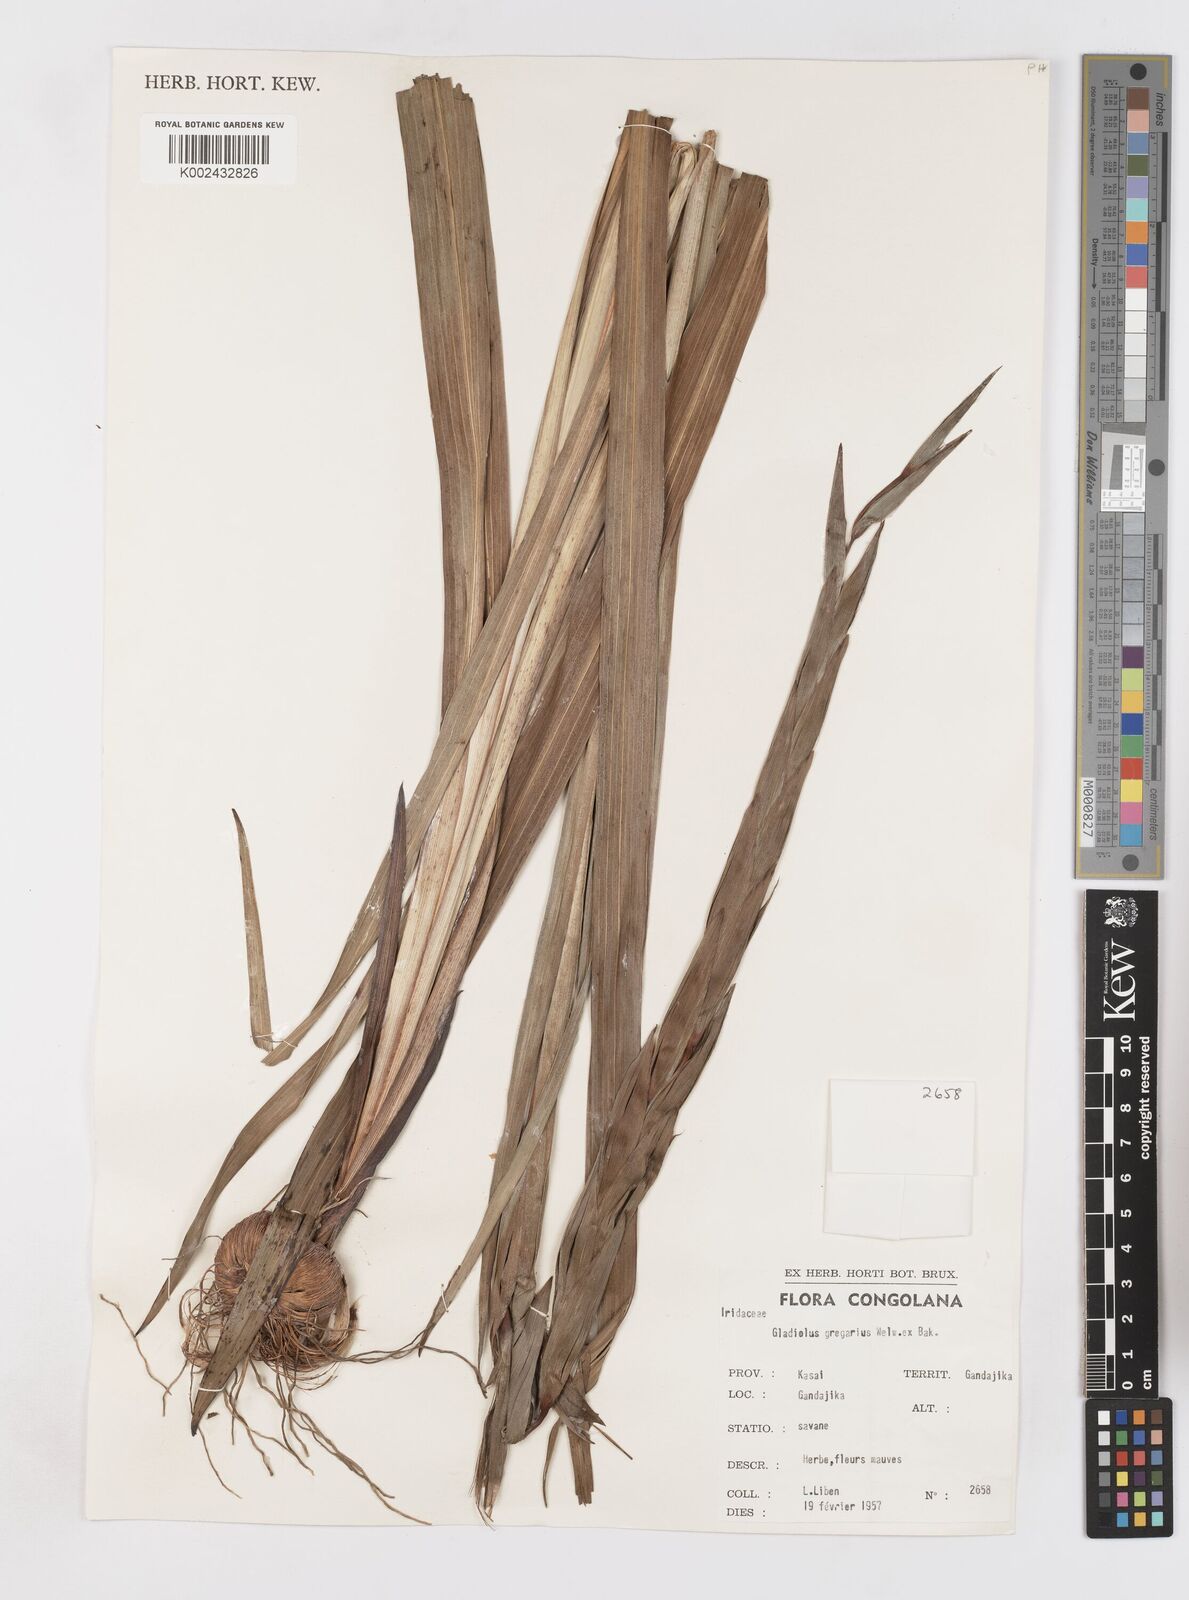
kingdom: Plantae
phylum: Tracheophyta
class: Liliopsida
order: Asparagales
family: Iridaceae
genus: Gladiolus
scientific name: Gladiolus gregarius
